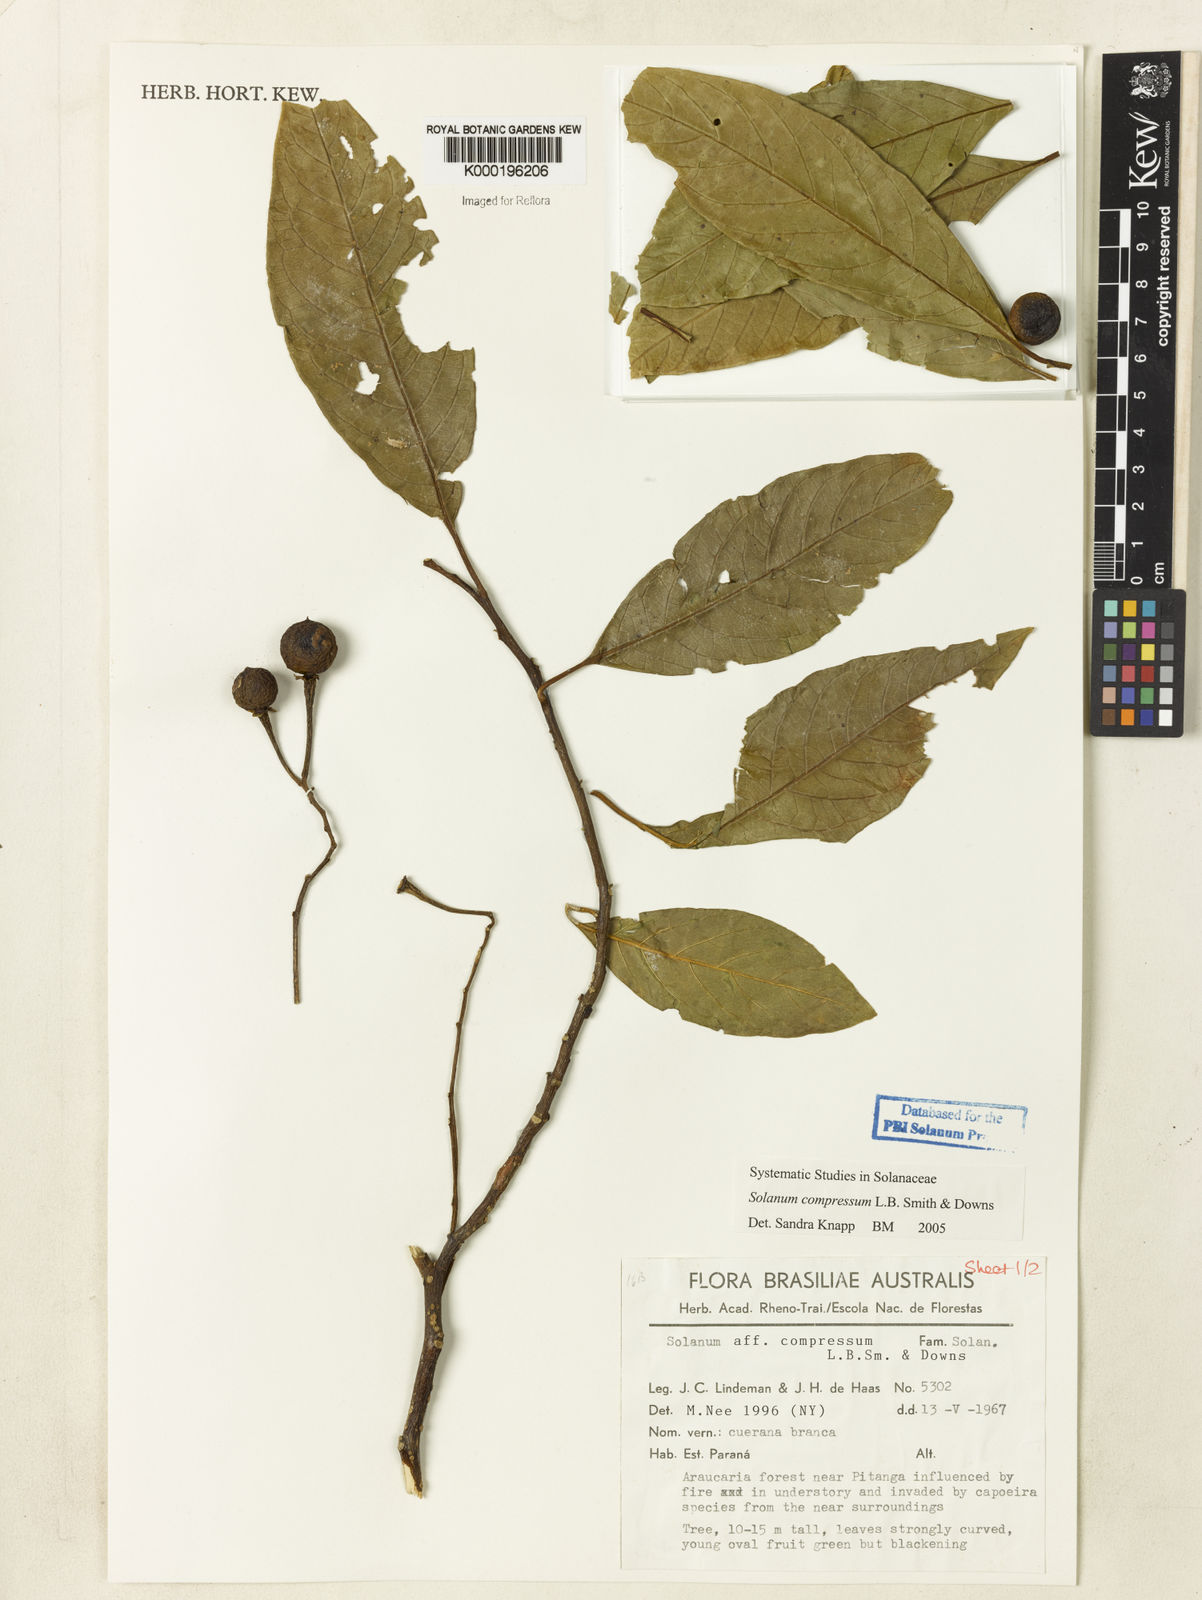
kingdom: Plantae
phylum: Tracheophyta
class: Magnoliopsida
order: Solanales
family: Solanaceae
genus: Solanum
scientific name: Solanum compressum
